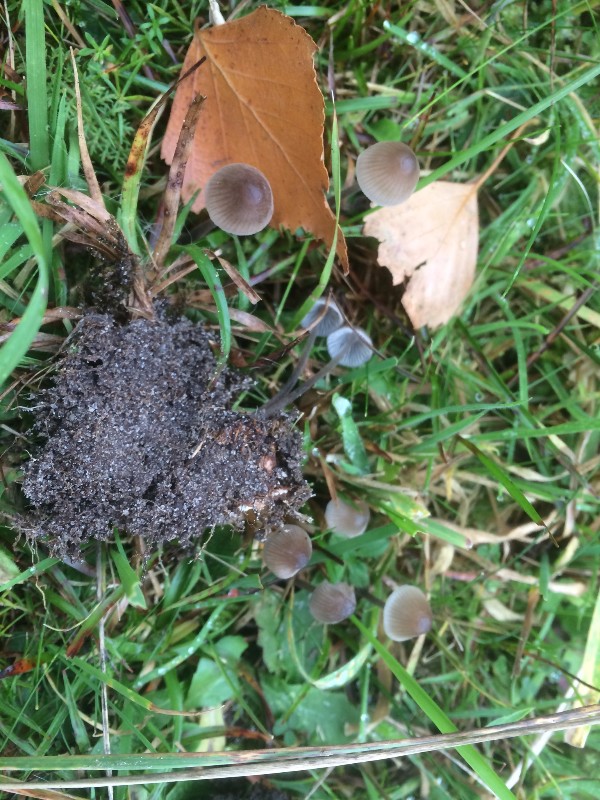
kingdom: Fungi
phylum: Basidiomycota
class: Agaricomycetes
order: Agaricales
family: Mycenaceae
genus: Mycena
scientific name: Mycena leptocephala
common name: klor-huesvamp
